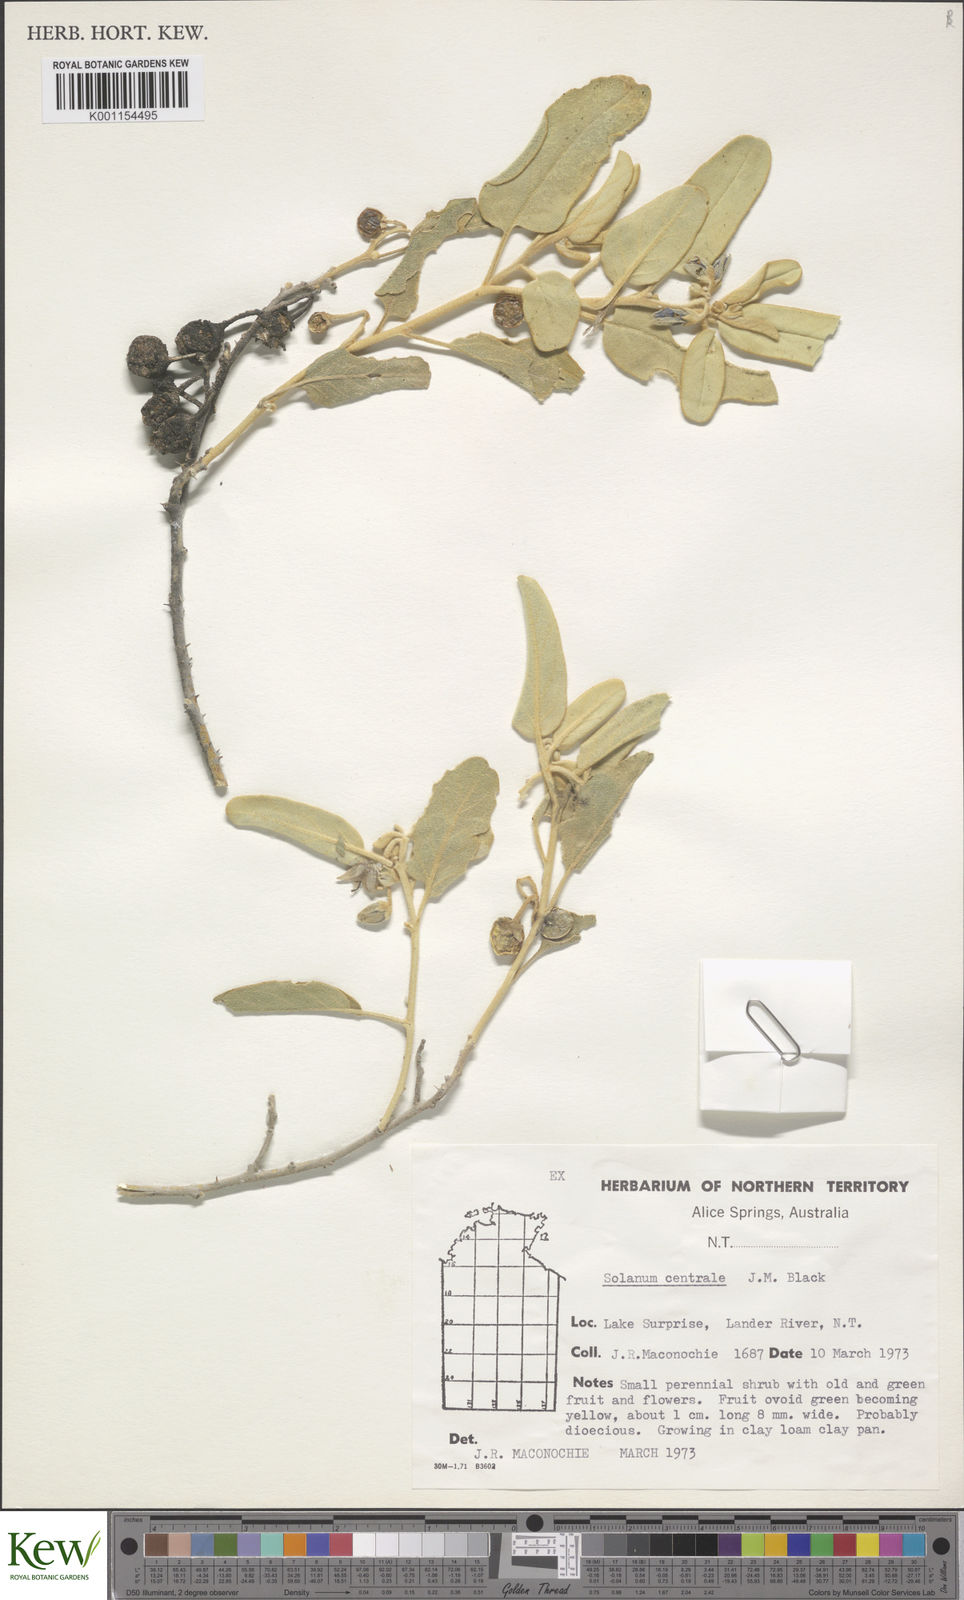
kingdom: Plantae
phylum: Tracheophyta
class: Magnoliopsida
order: Solanales
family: Solanaceae
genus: Solanum
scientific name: Solanum centrale
